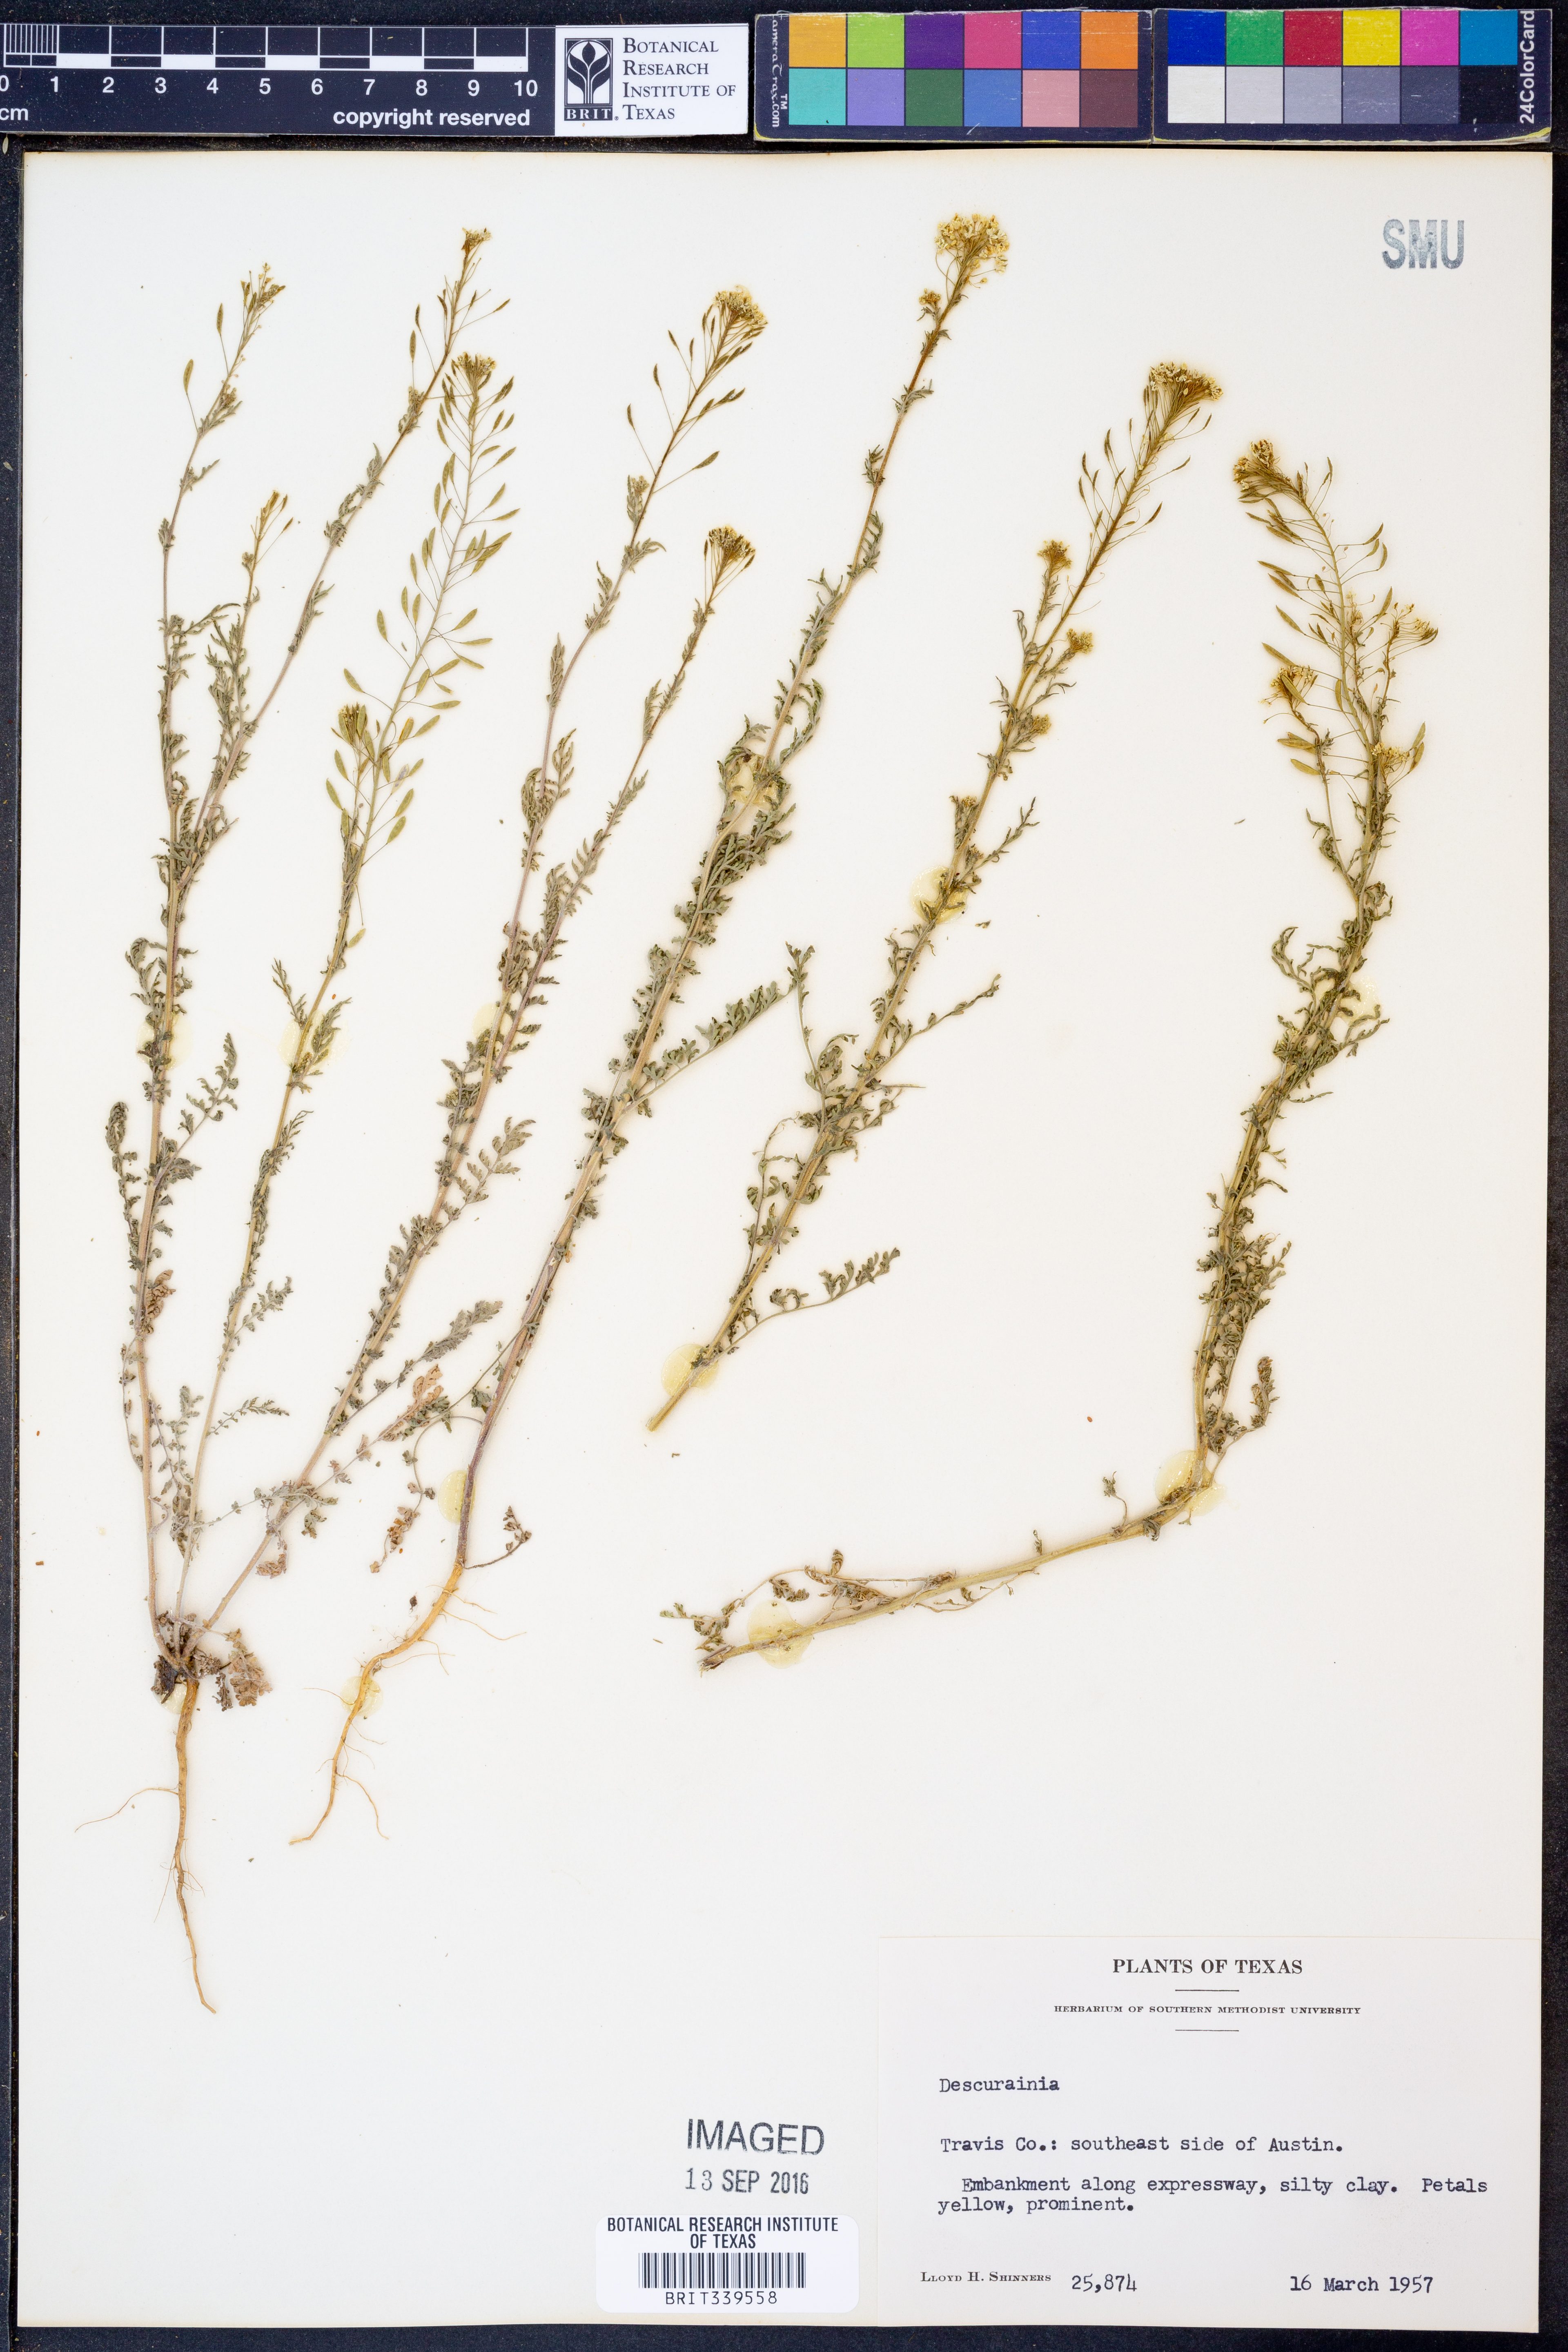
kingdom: Plantae
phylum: Tracheophyta
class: Magnoliopsida
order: Brassicales
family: Brassicaceae
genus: Descurainia
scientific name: Descurainia
